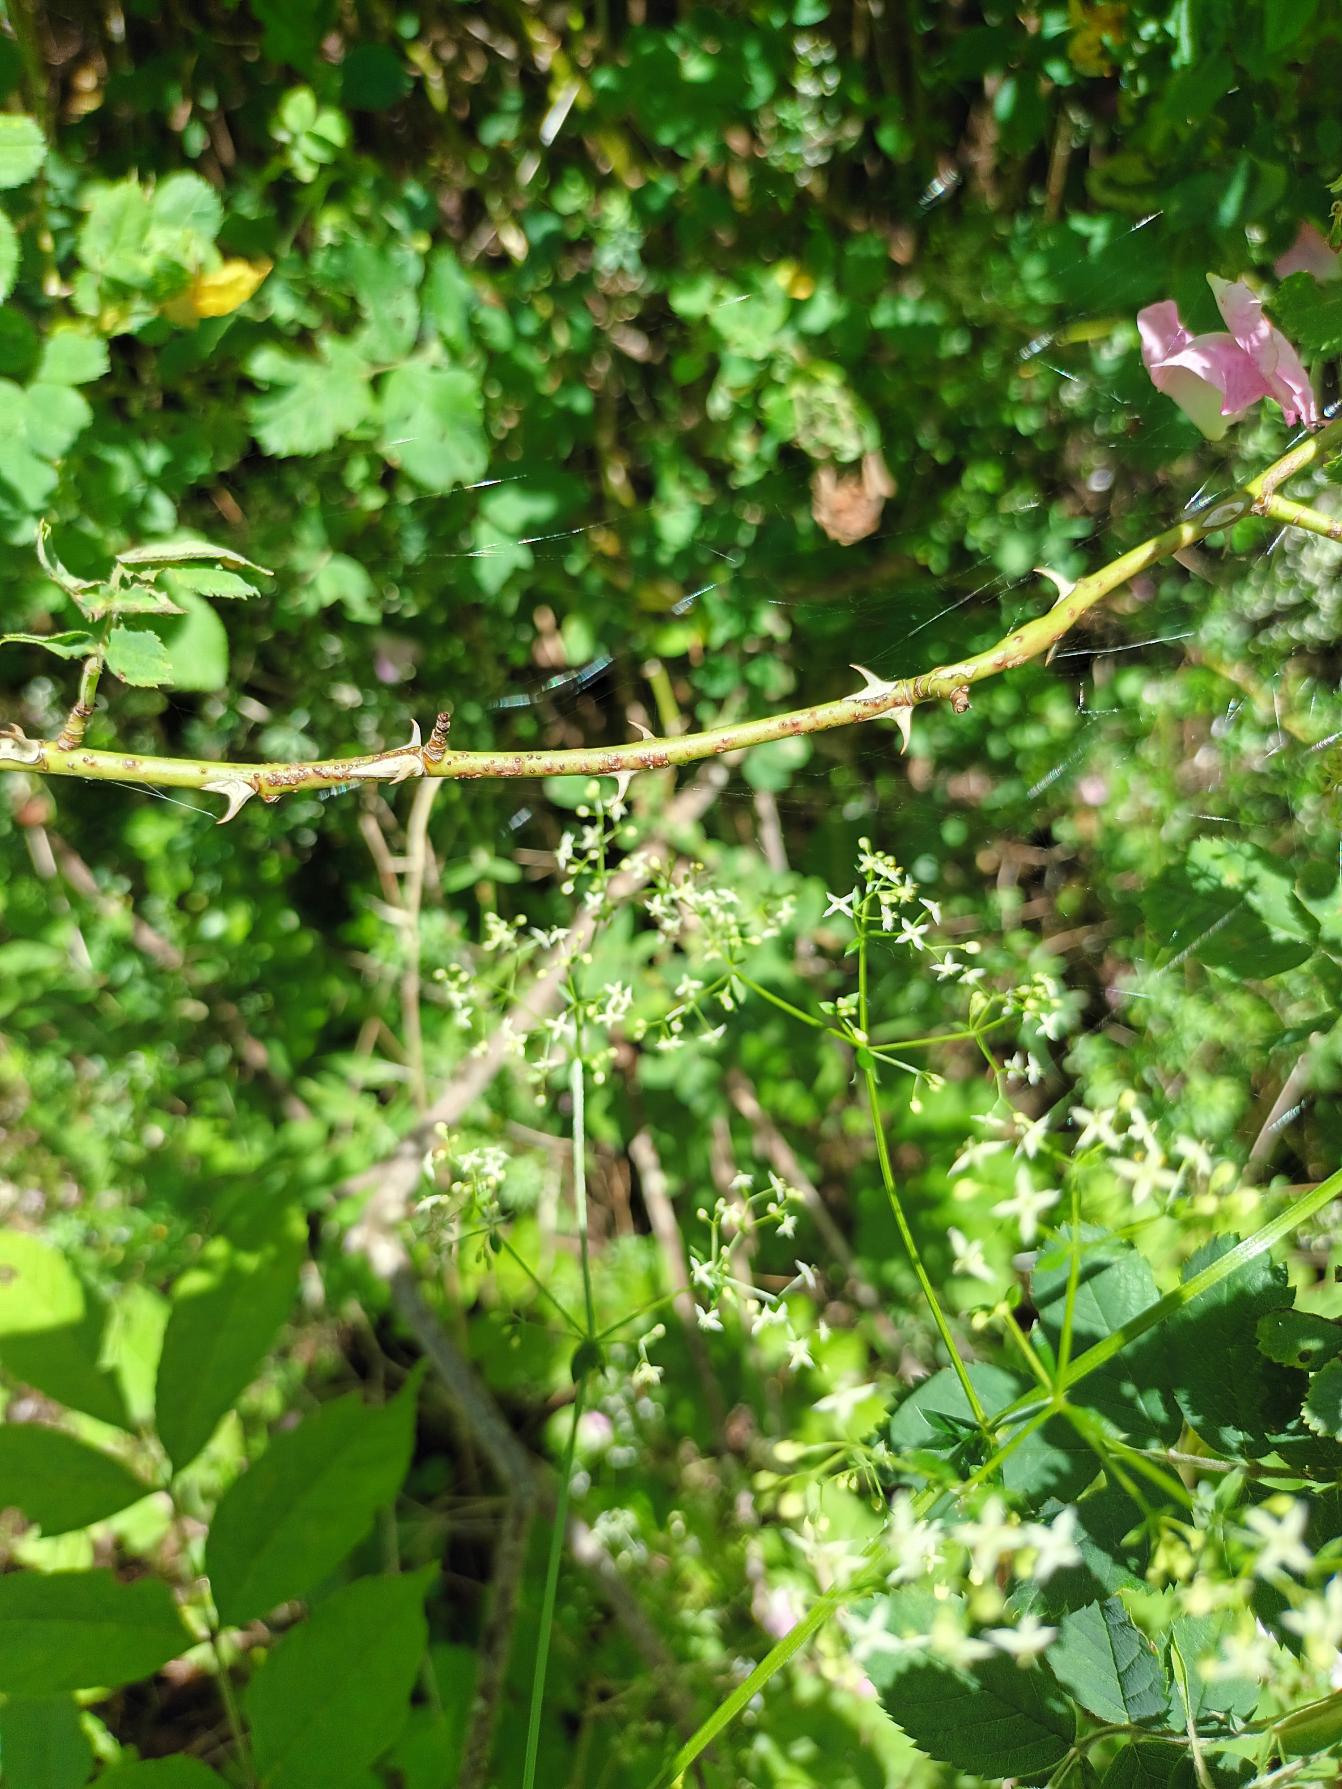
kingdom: Plantae
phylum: Tracheophyta
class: Magnoliopsida
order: Rosales
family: Rosaceae
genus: Rosa
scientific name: Rosa caesia
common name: Håret blågrøn rose
